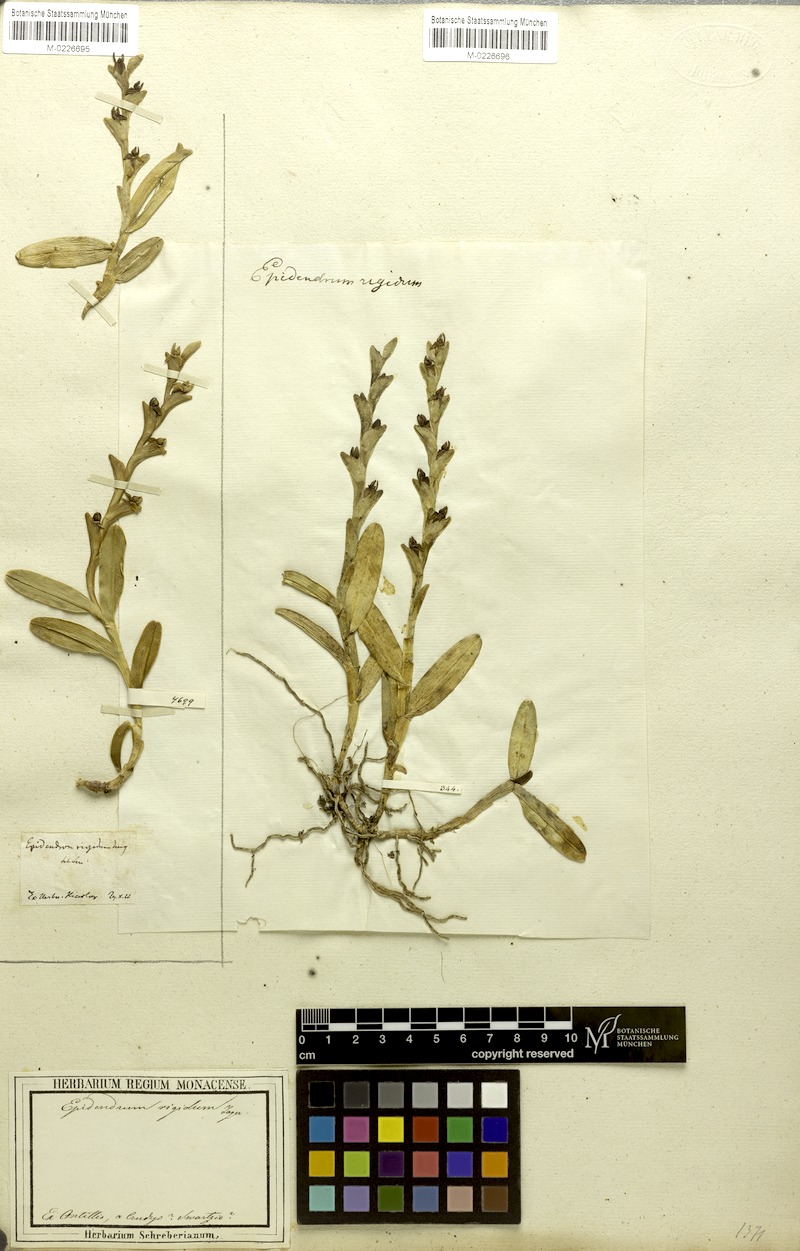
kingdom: Plantae
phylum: Tracheophyta
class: Liliopsida
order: Asparagales
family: Orchidaceae
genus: Epidendrum
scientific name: Epidendrum rigidum
